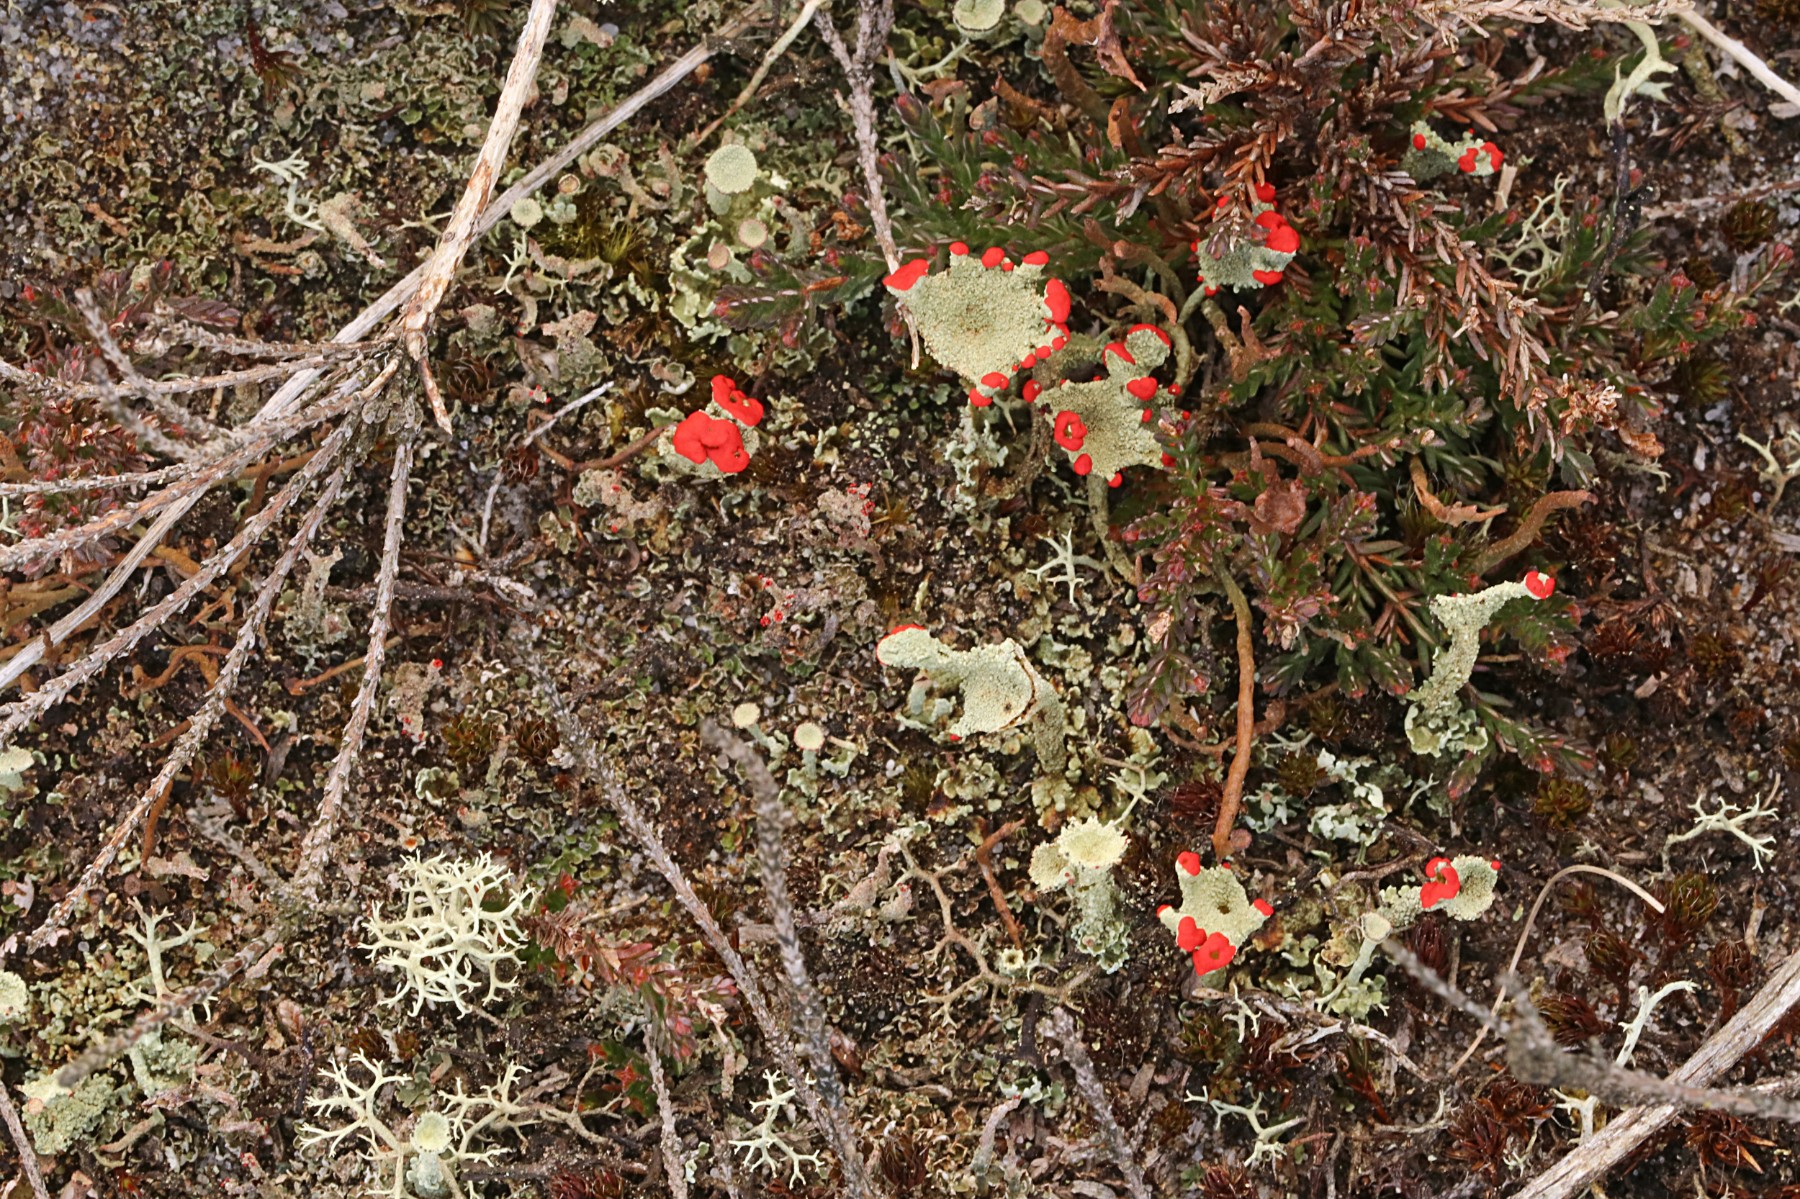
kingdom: Fungi
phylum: Ascomycota
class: Lecanoromycetes
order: Lecanorales
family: Cladoniaceae
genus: Cladonia
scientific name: Cladonia diversa
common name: rød bægerlav
